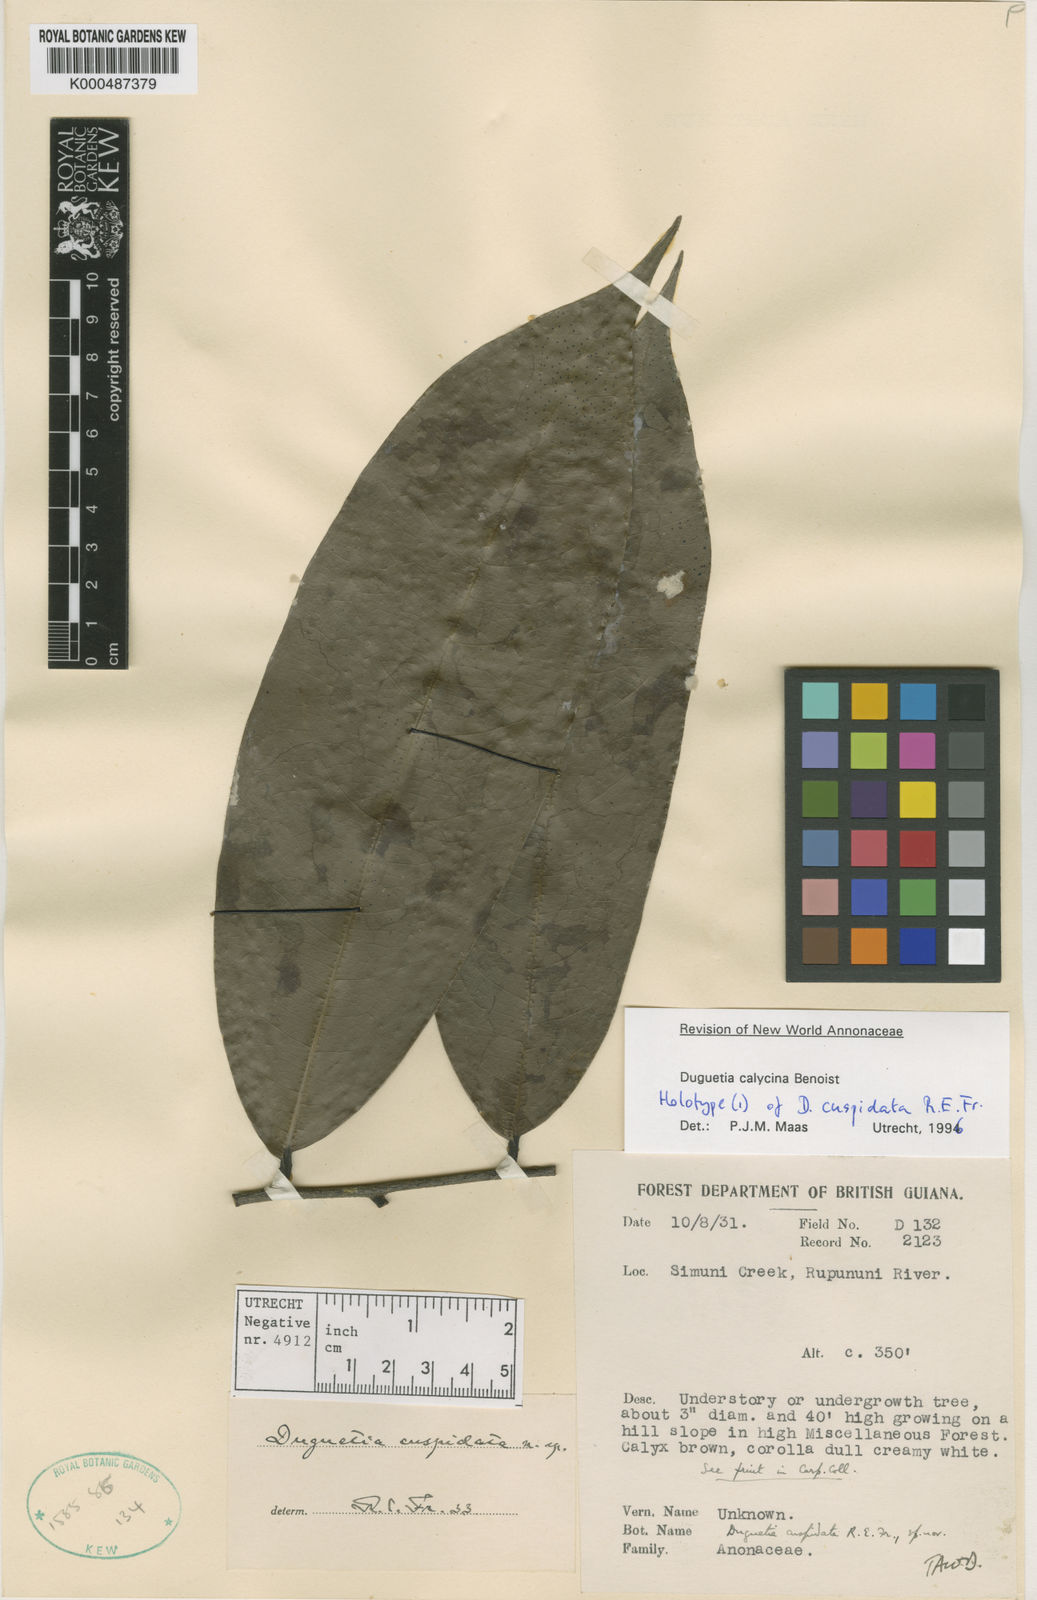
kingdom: Plantae
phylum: Tracheophyta
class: Magnoliopsida
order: Magnoliales
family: Annonaceae
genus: Duguetia
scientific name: Duguetia calycina
